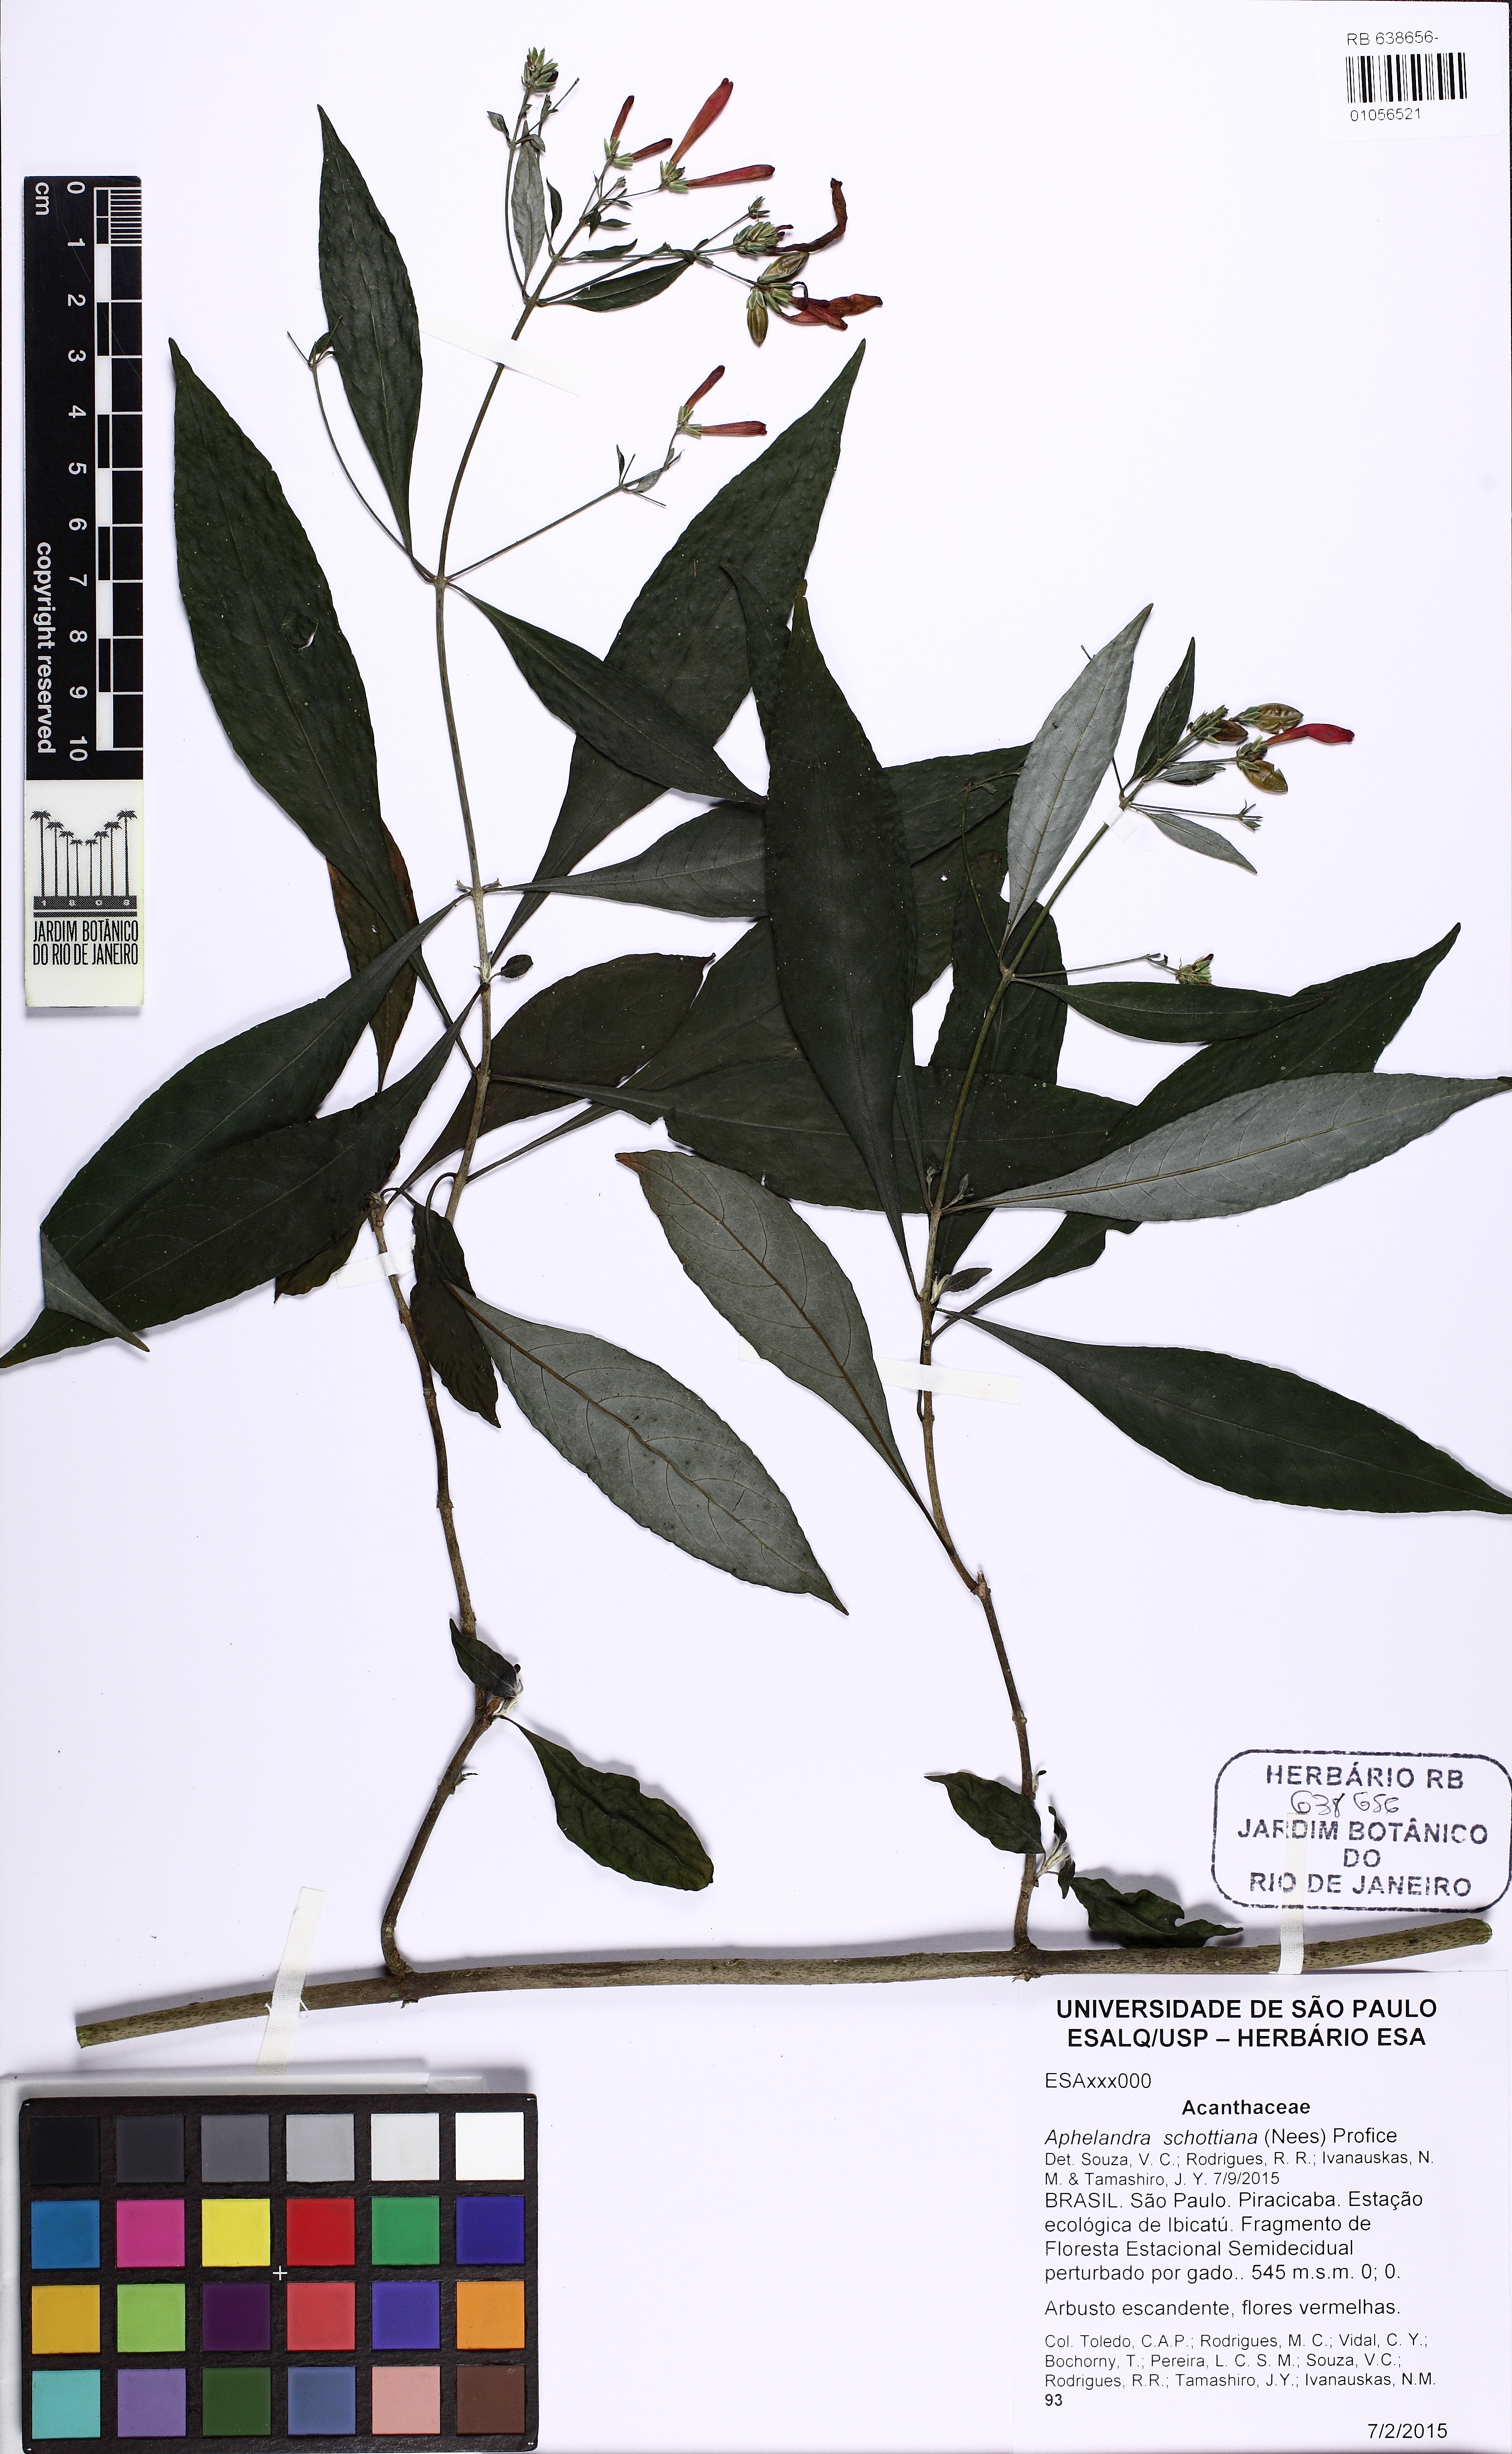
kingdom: Plantae
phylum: Tracheophyta
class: Magnoliopsida
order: Lamiales
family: Acanthaceae
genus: Aphelandra
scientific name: Aphelandra schottiana
